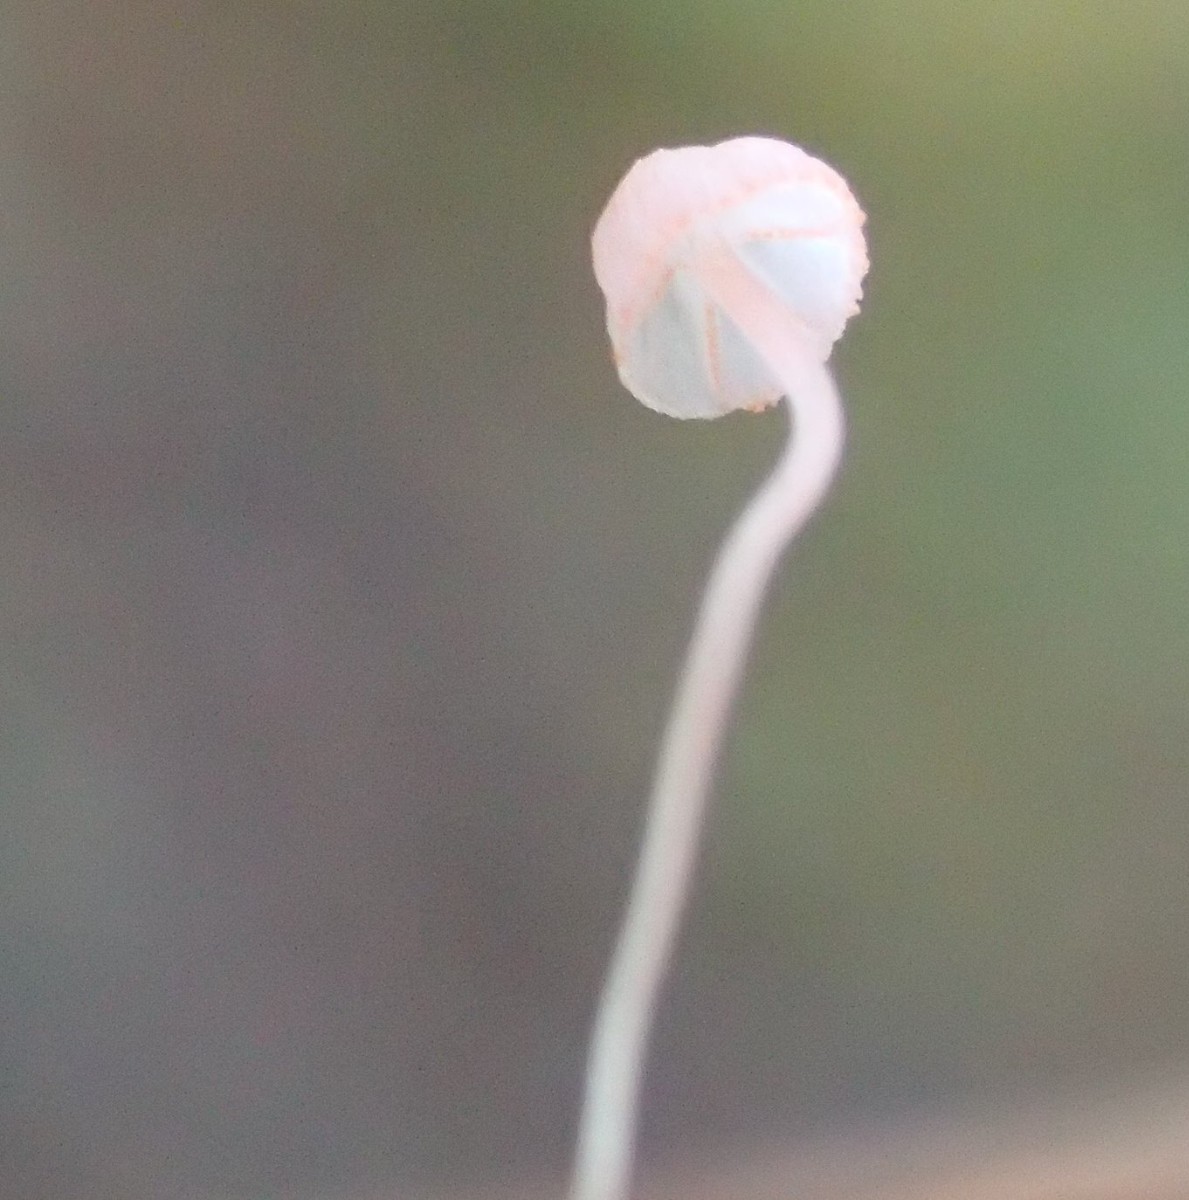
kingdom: Fungi
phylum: Basidiomycota
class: Agaricomycetes
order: Agaricales
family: Mycenaceae
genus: Mycena
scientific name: Mycena pterigena
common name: bregne-huesvamp
